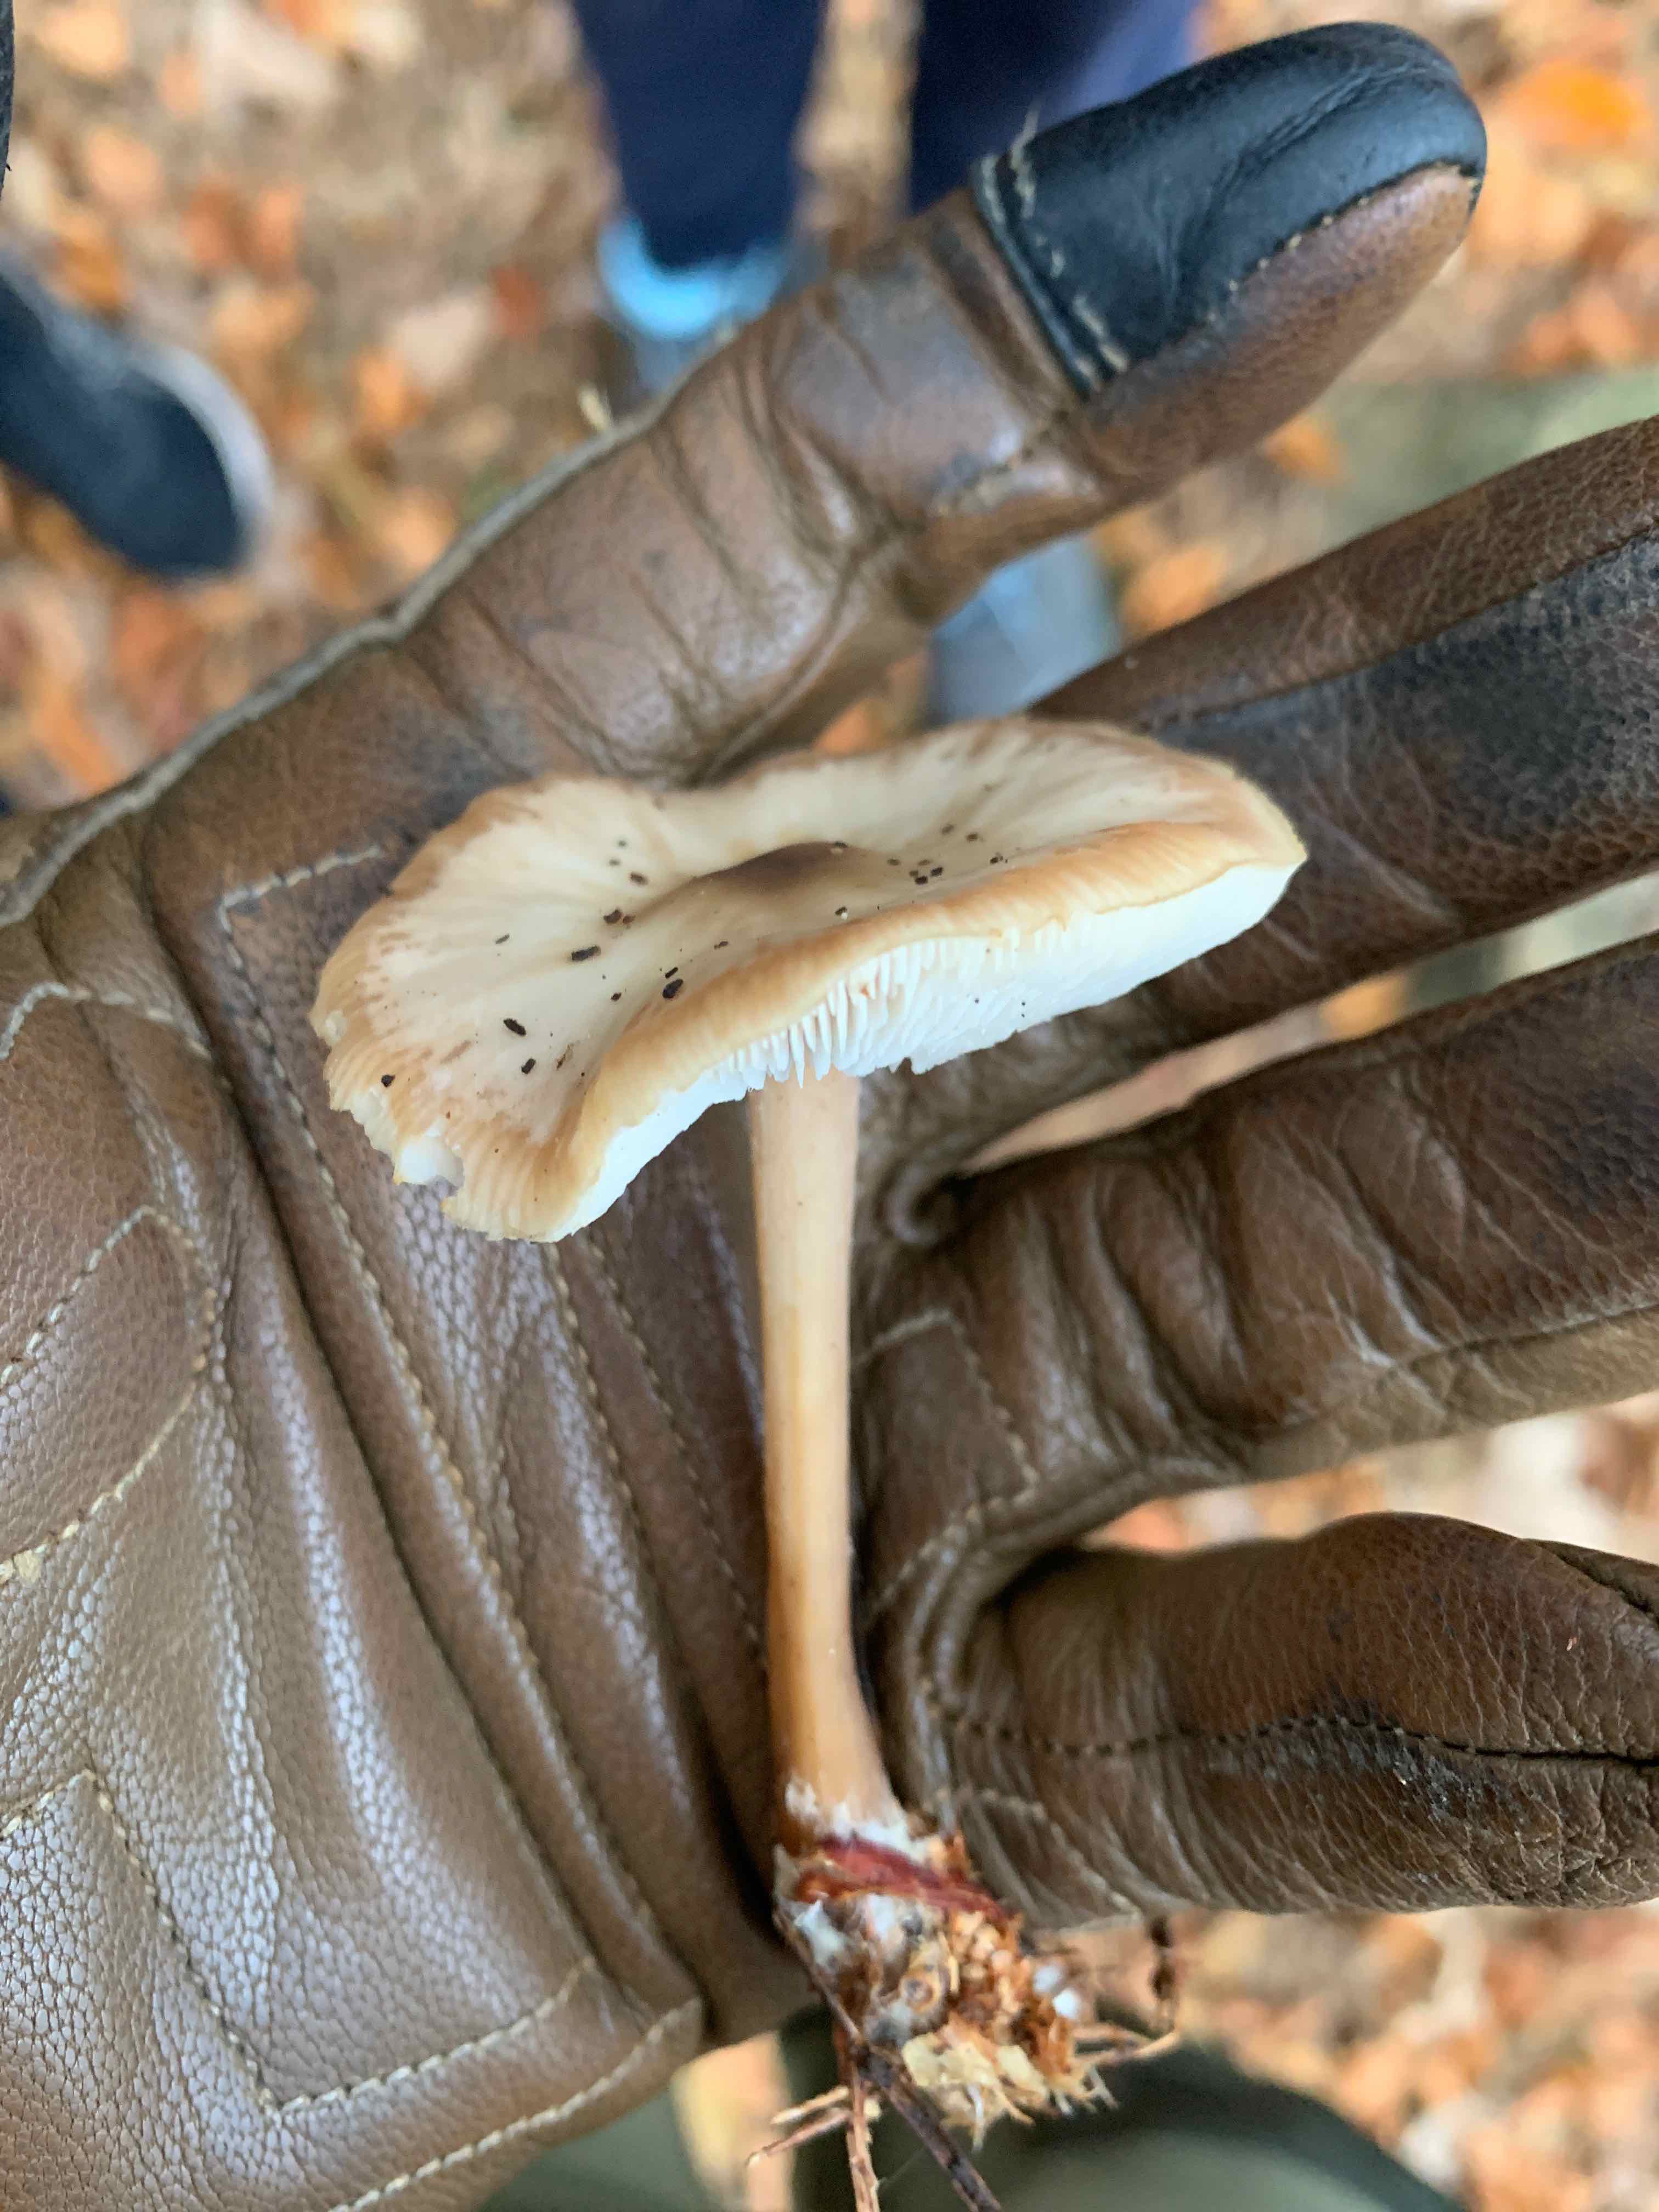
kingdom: Fungi
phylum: Basidiomycota
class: Agaricomycetes
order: Agaricales
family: Omphalotaceae
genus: Rhodocollybia
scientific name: Rhodocollybia asema
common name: horngrå fladhat
